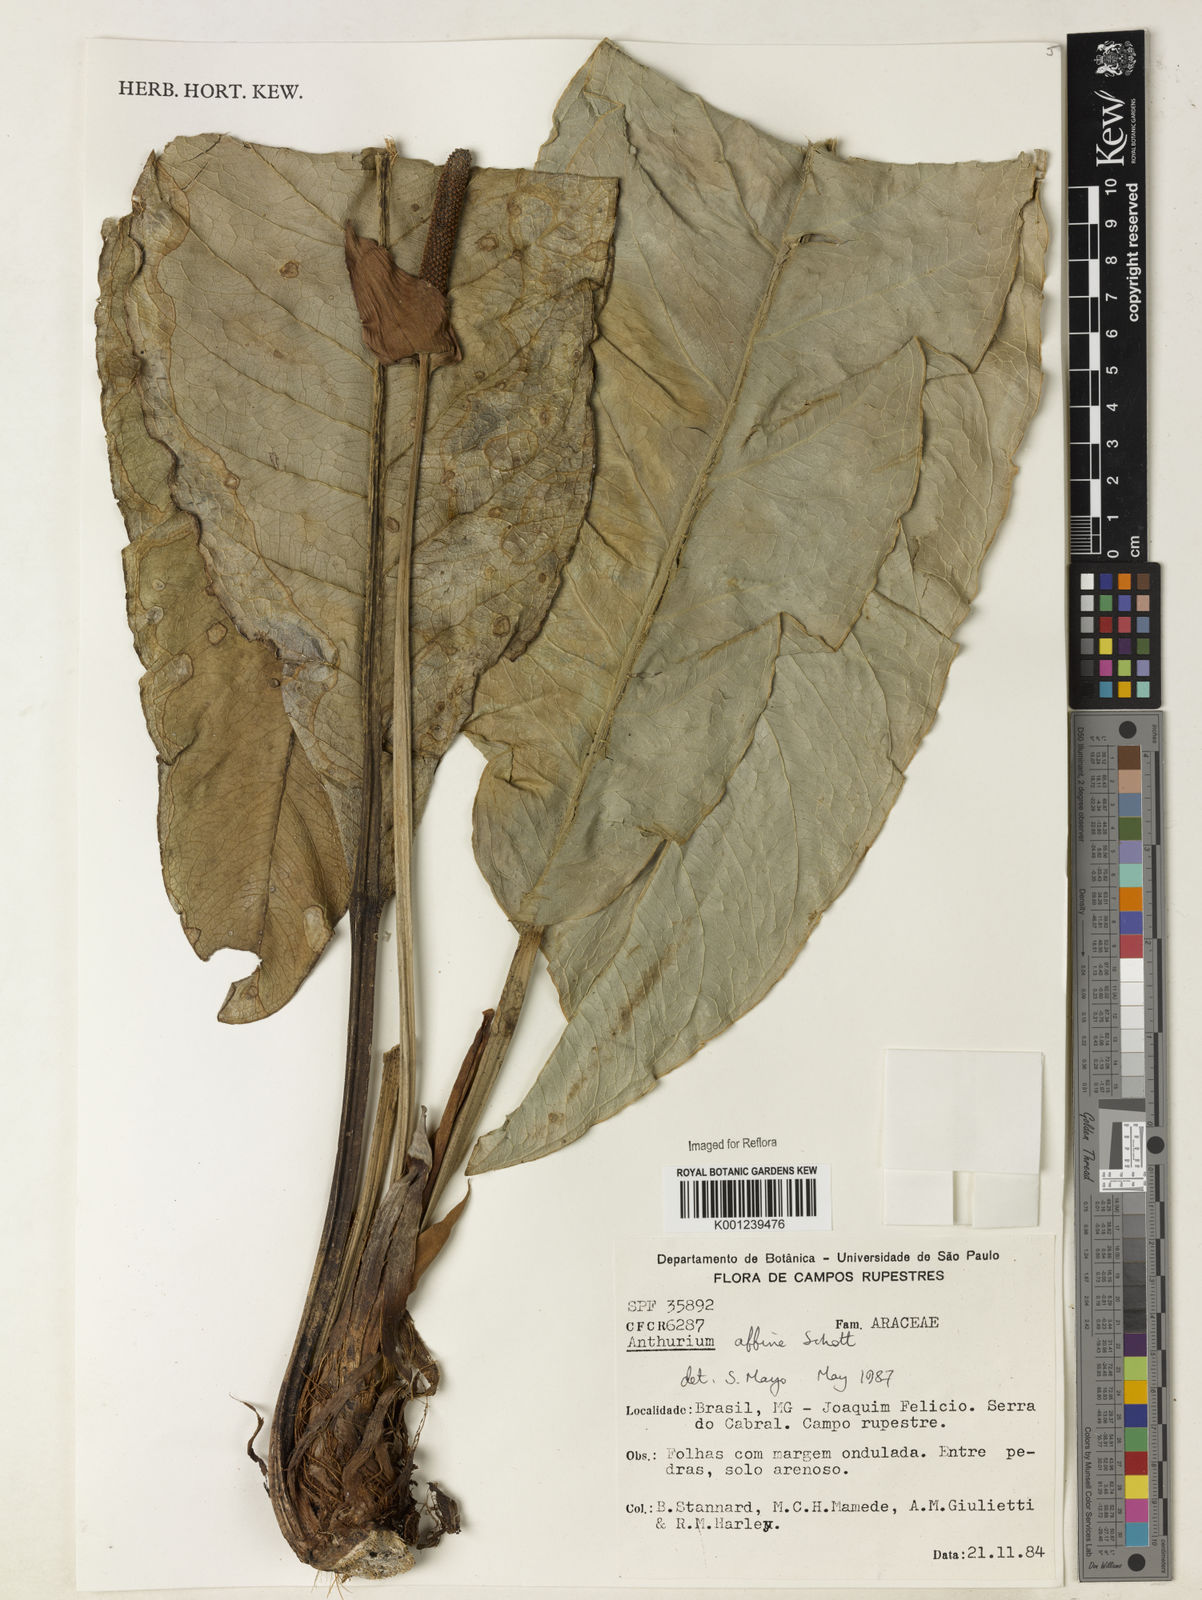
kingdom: Plantae
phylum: Tracheophyta
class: Liliopsida
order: Alismatales
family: Araceae
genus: Anthurium
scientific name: Anthurium affine
